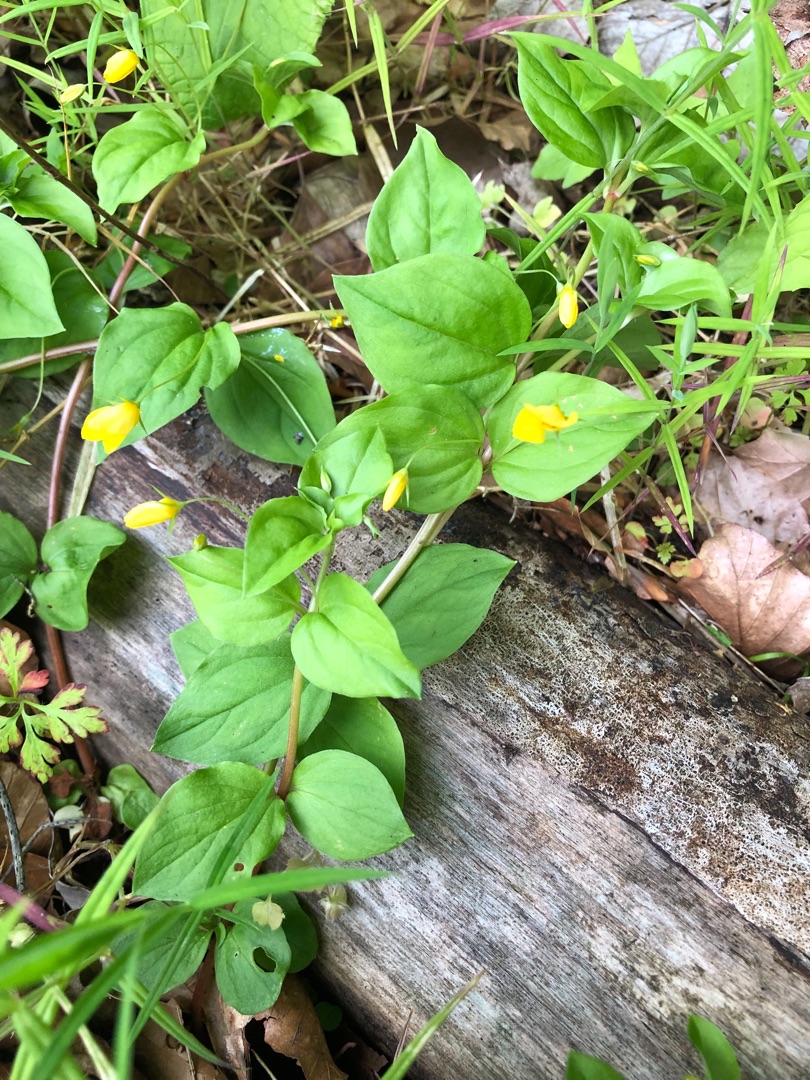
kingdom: Plantae
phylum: Tracheophyta
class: Magnoliopsida
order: Ericales
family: Primulaceae
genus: Lysimachia
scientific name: Lysimachia nemorum
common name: Lund-fredløs
